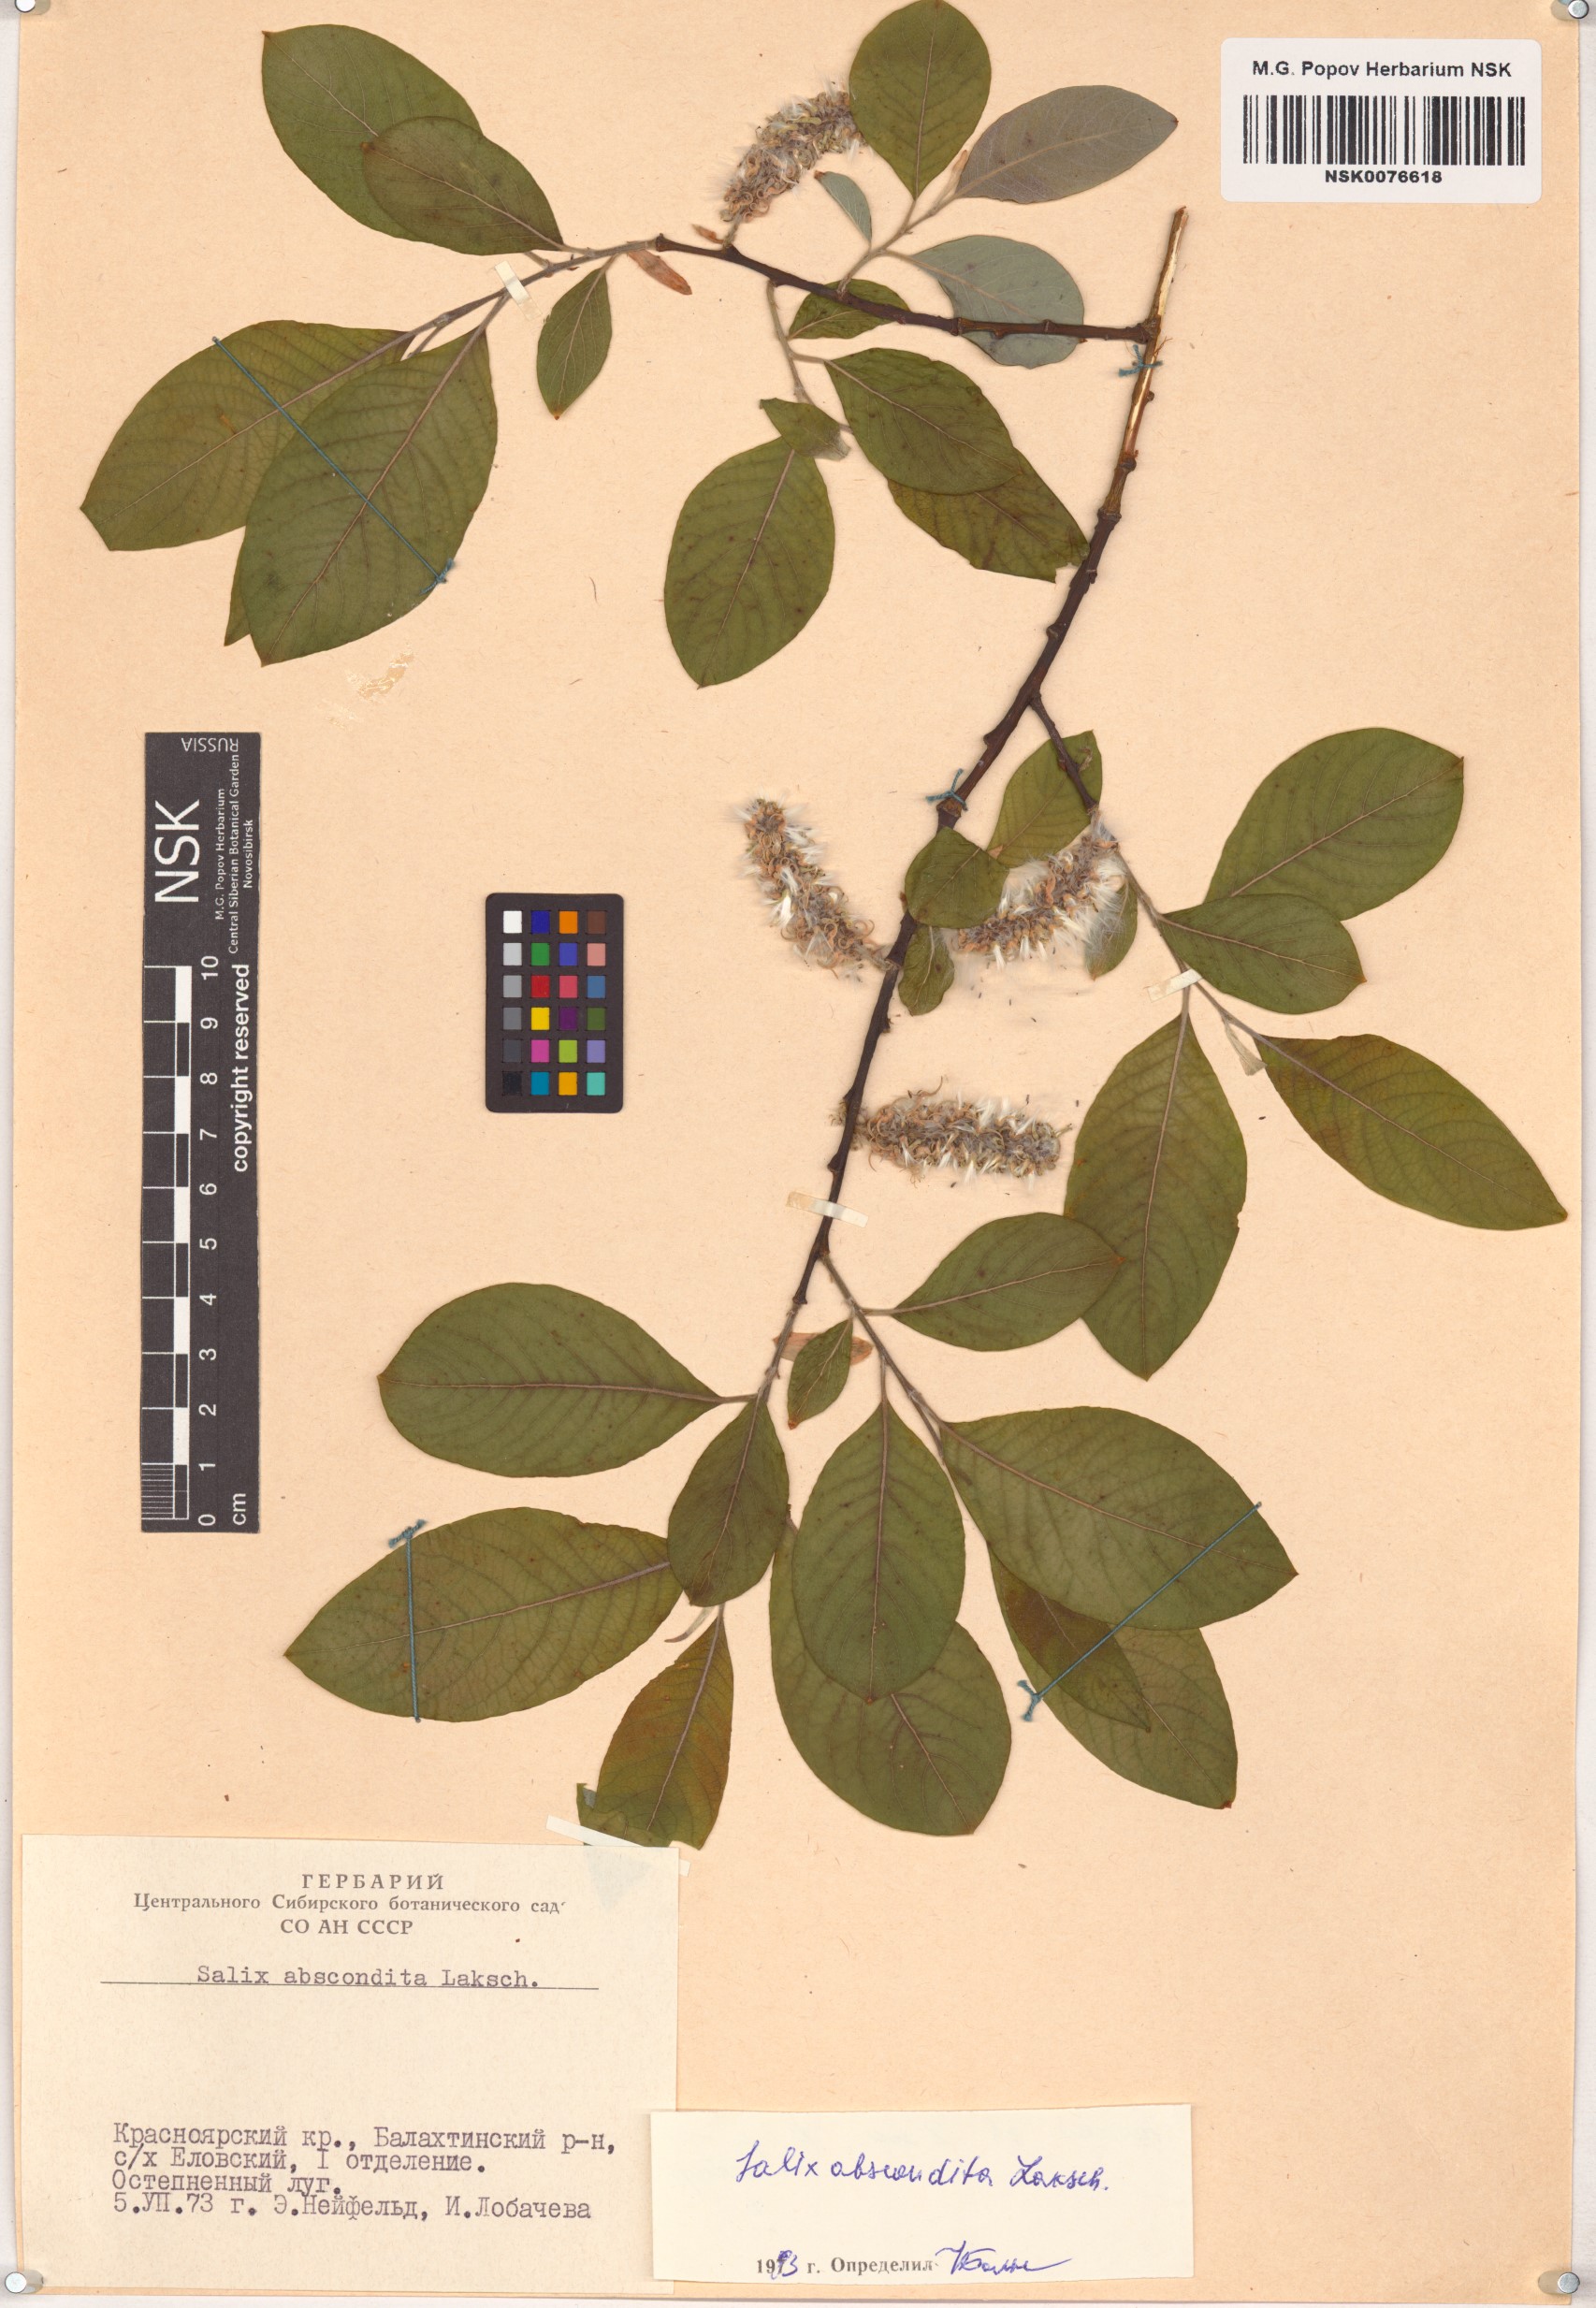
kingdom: Plantae
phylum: Tracheophyta
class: Magnoliopsida
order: Malpighiales
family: Salicaceae
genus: Salix
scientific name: Salix abscondita
